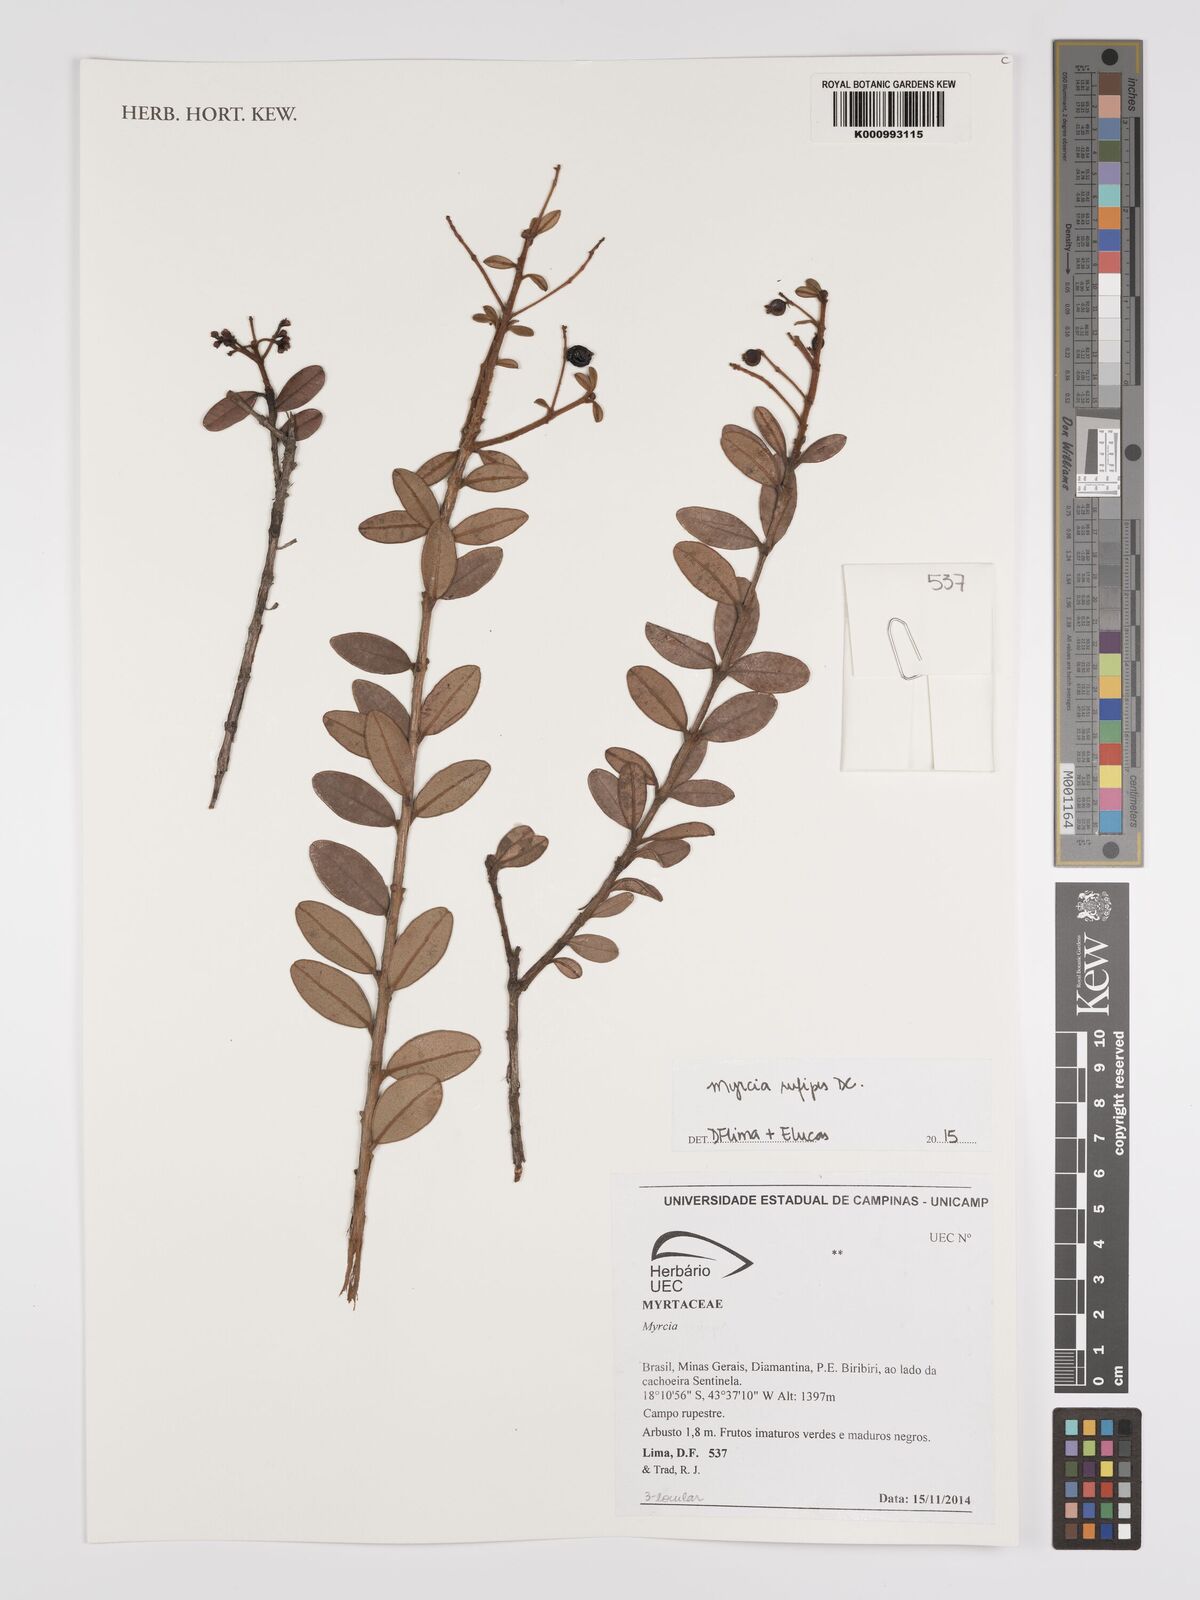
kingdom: Plantae
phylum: Tracheophyta
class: Magnoliopsida
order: Myrtales
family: Myrtaceae
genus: Myrcia
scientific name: Myrcia rufipes
